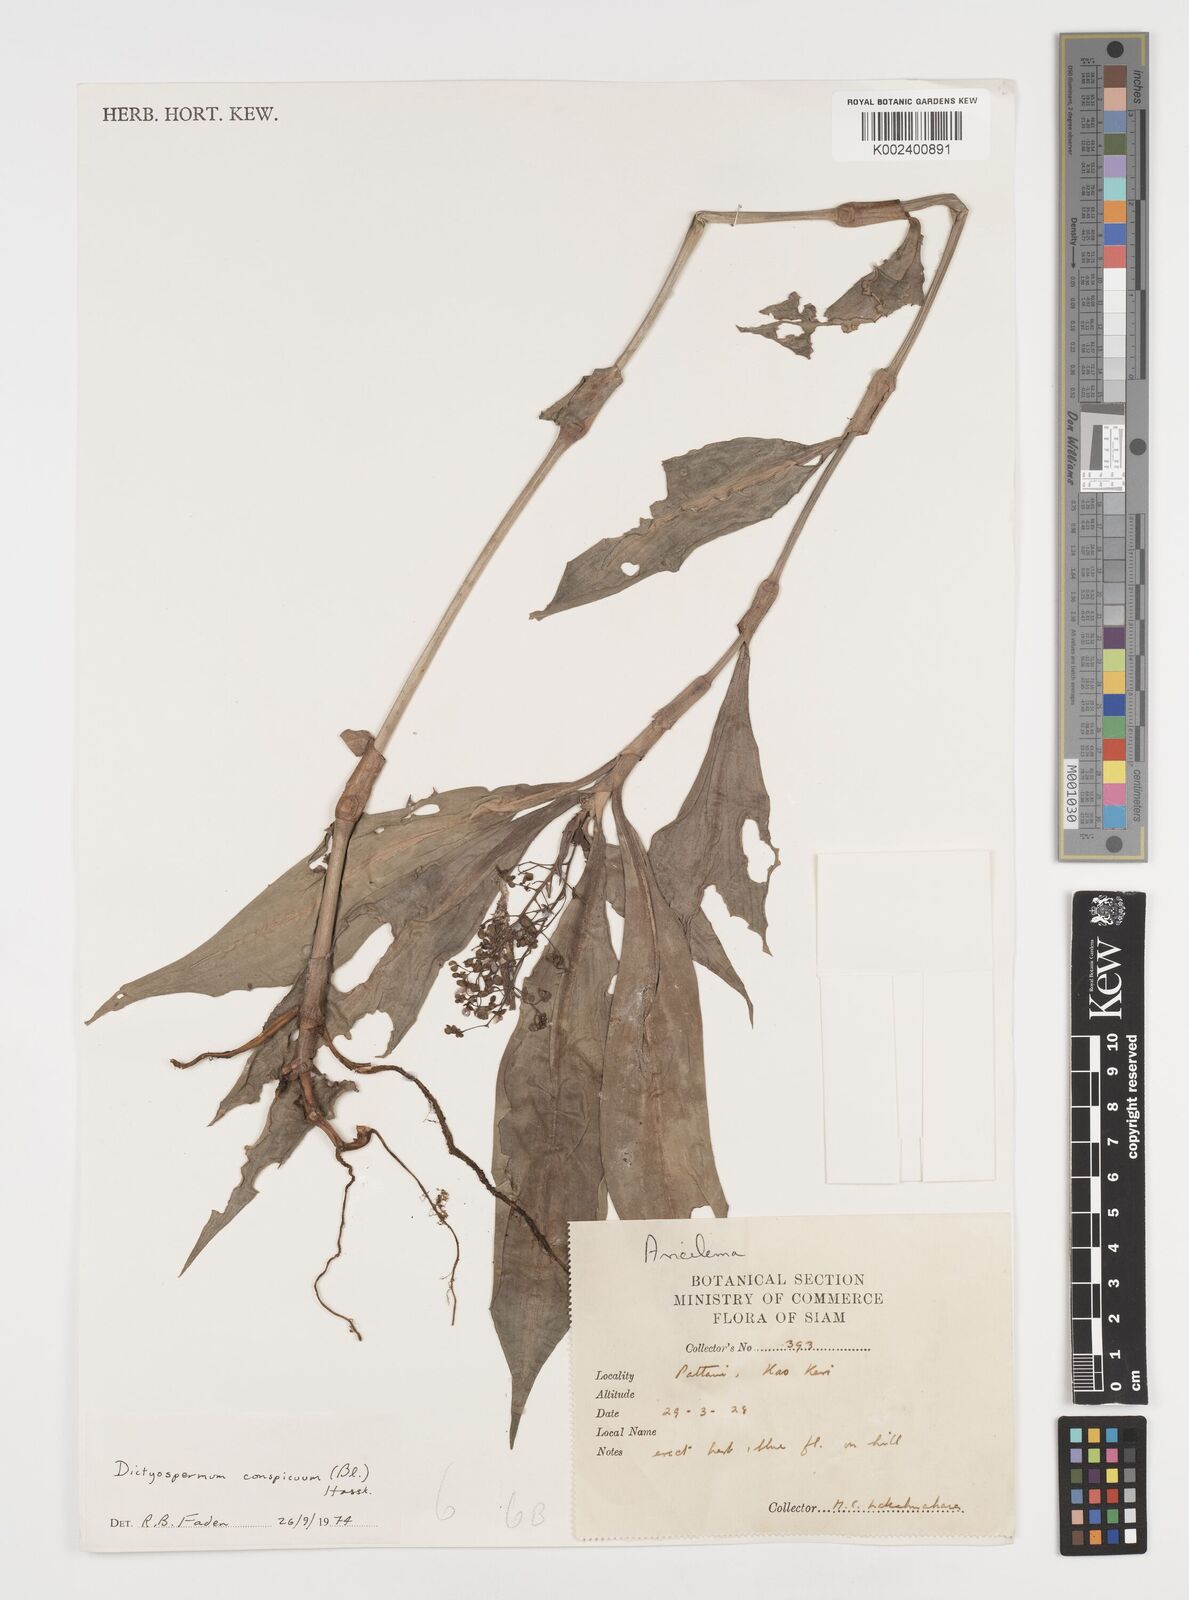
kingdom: Plantae
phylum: Tracheophyta
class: Liliopsida
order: Commelinales
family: Commelinaceae
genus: Dictyospermum
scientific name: Dictyospermum conspicuum
